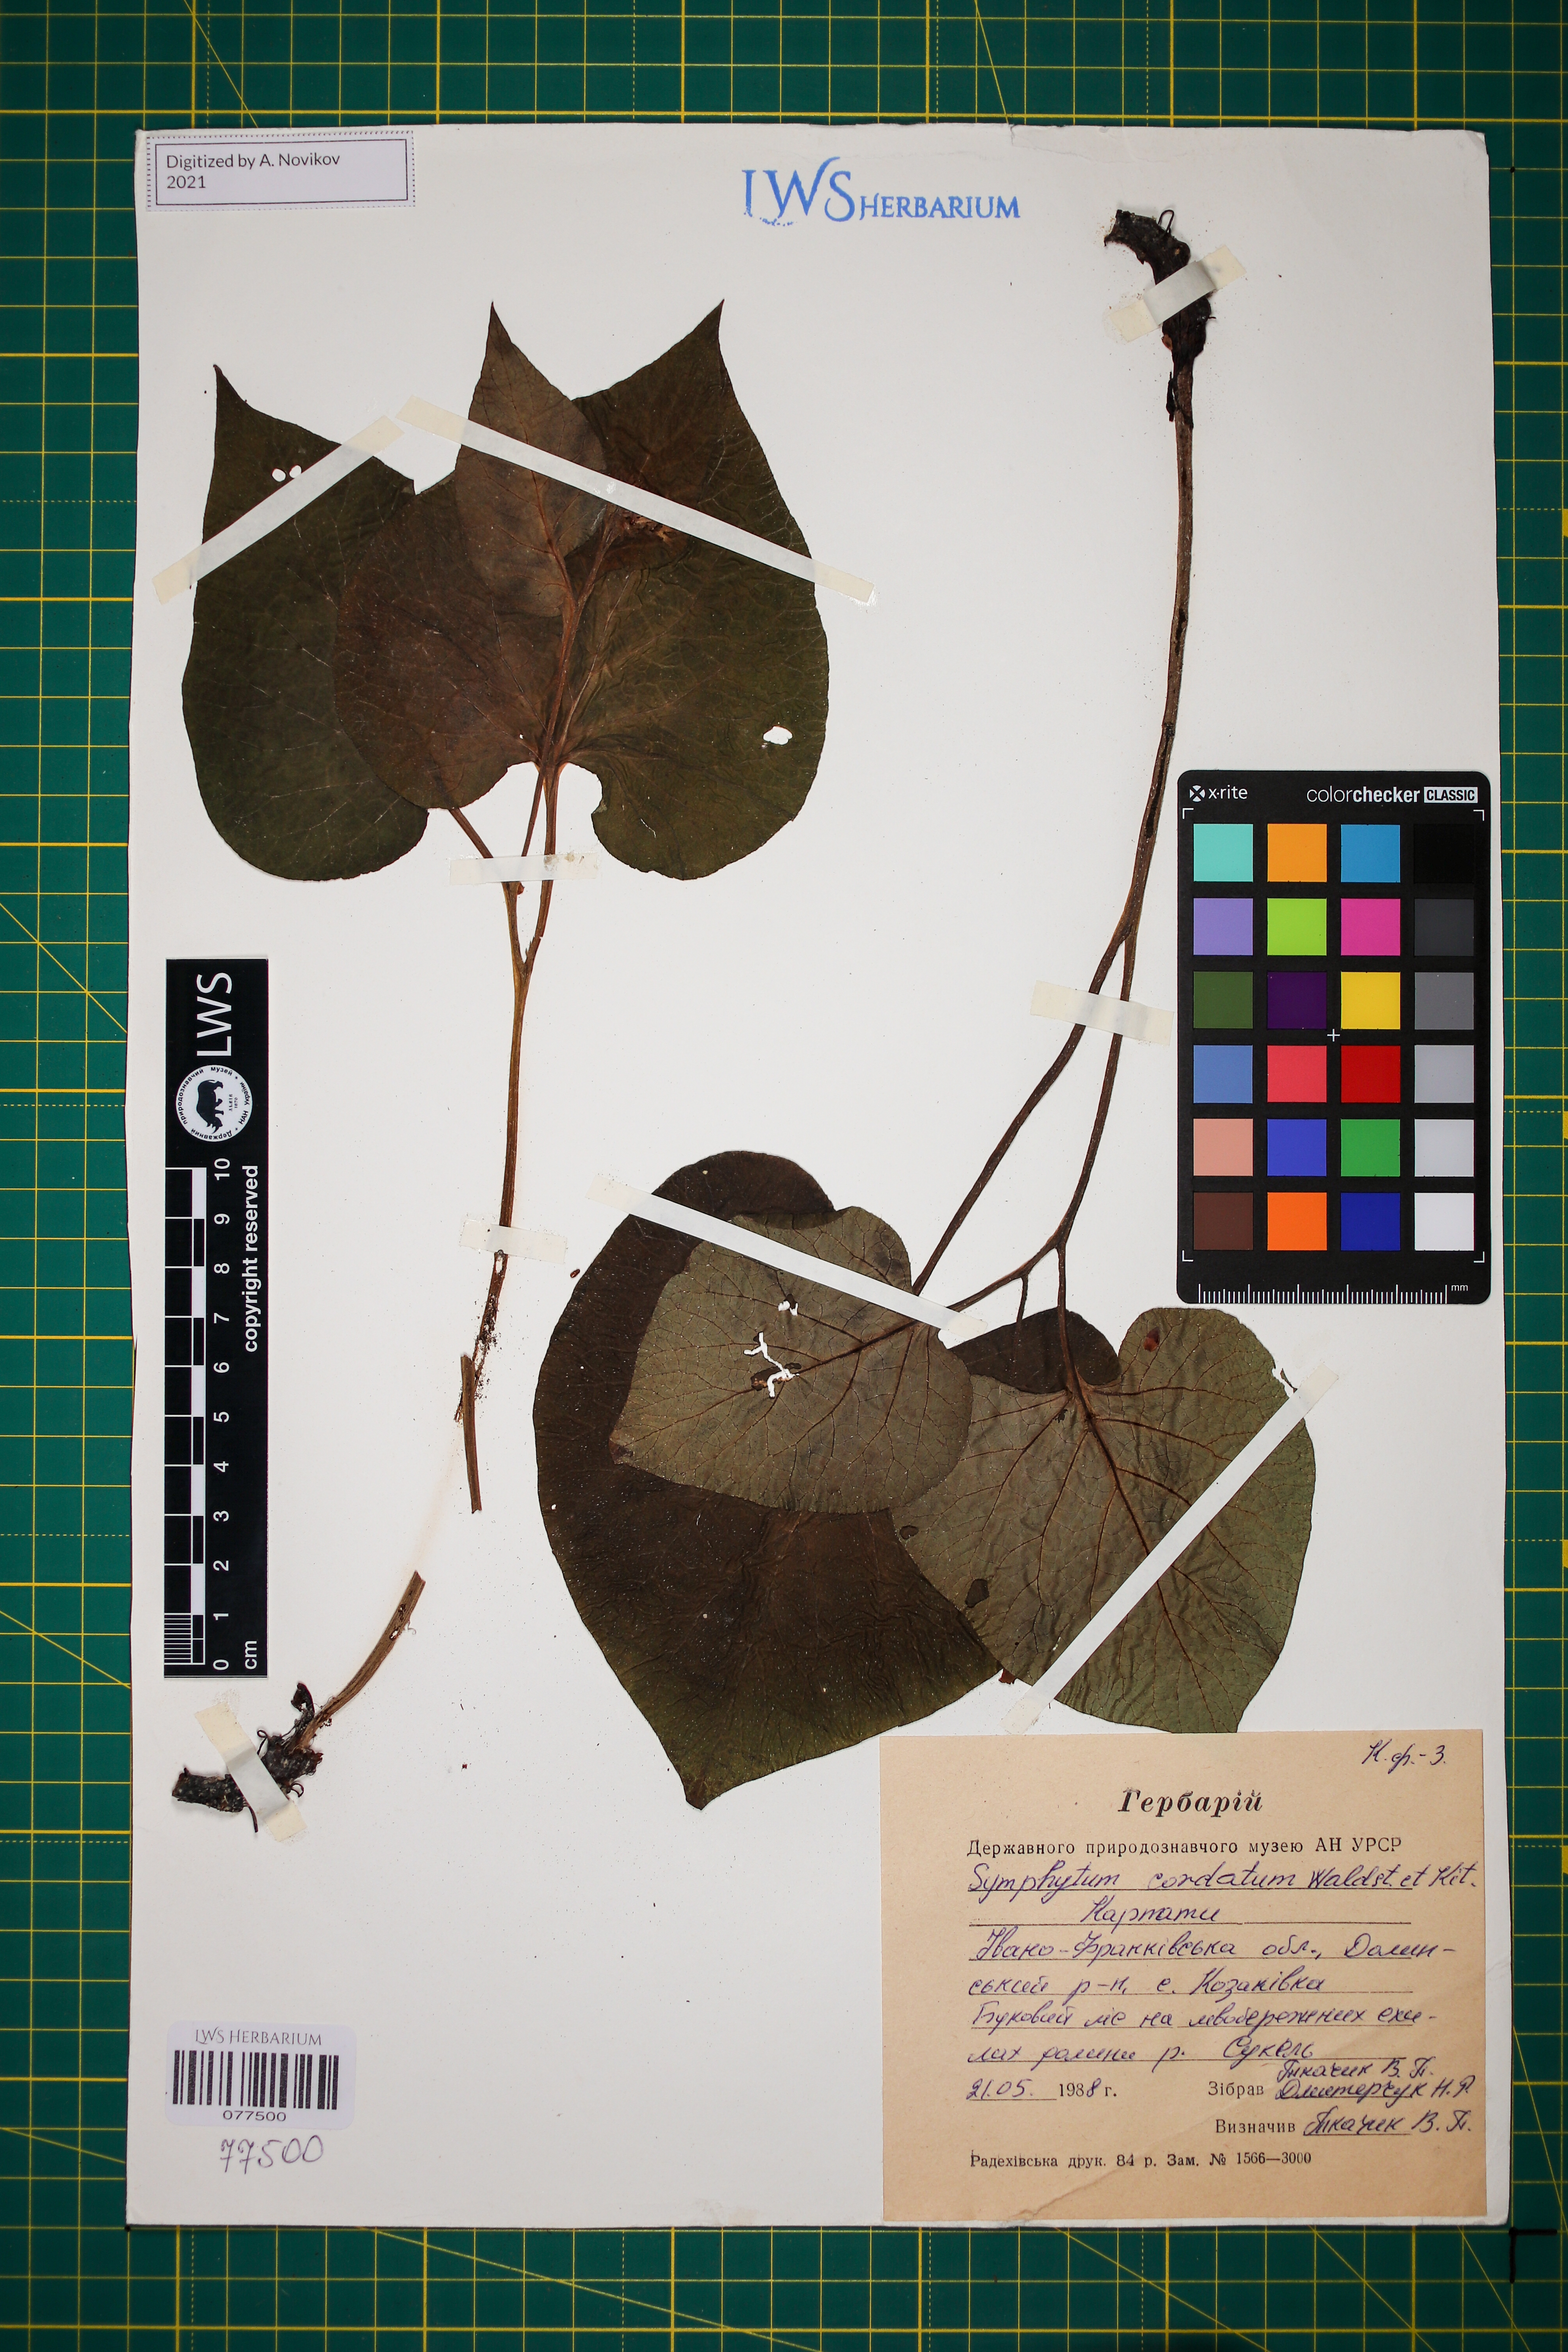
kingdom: Plantae
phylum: Tracheophyta
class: Magnoliopsida
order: Boraginales
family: Boraginaceae
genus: Symphytum
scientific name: Symphytum cordatum
